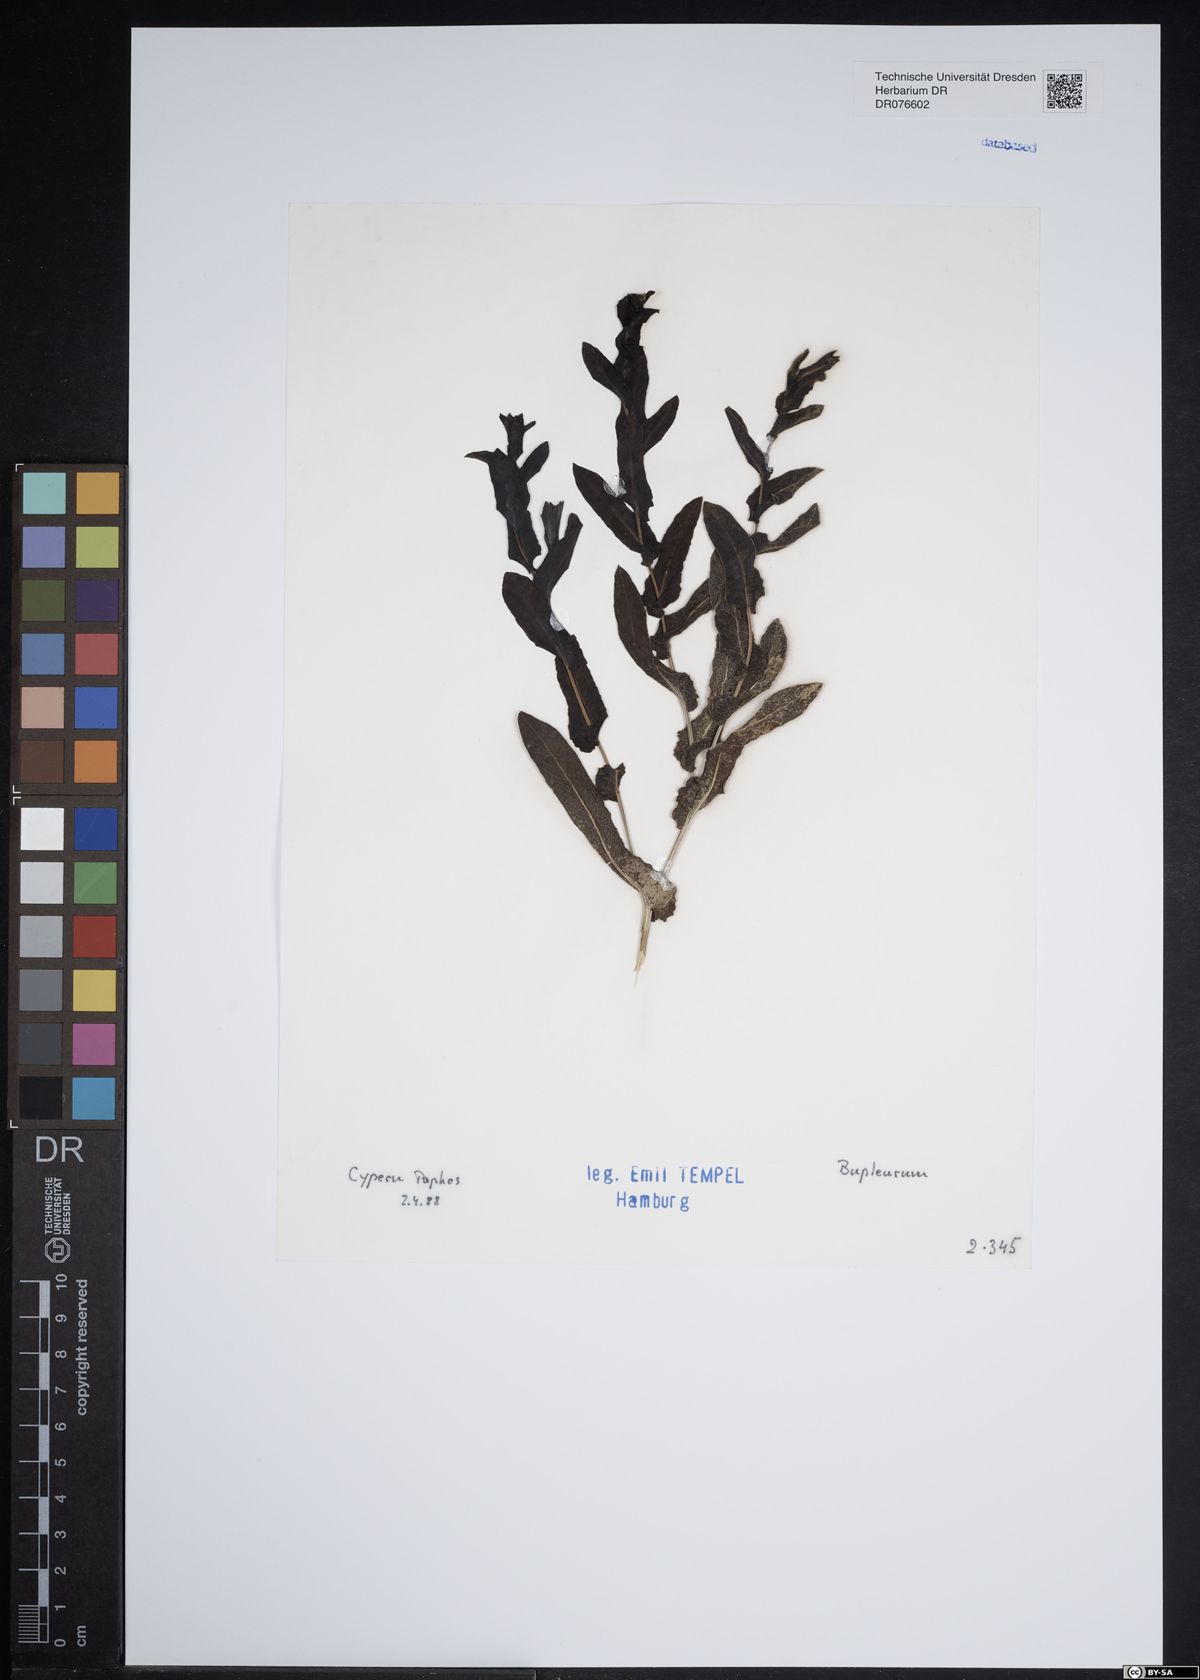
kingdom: Plantae
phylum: Tracheophyta
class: Magnoliopsida
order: Apiales
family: Apiaceae
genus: Bupleurum
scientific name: Bupleurum
